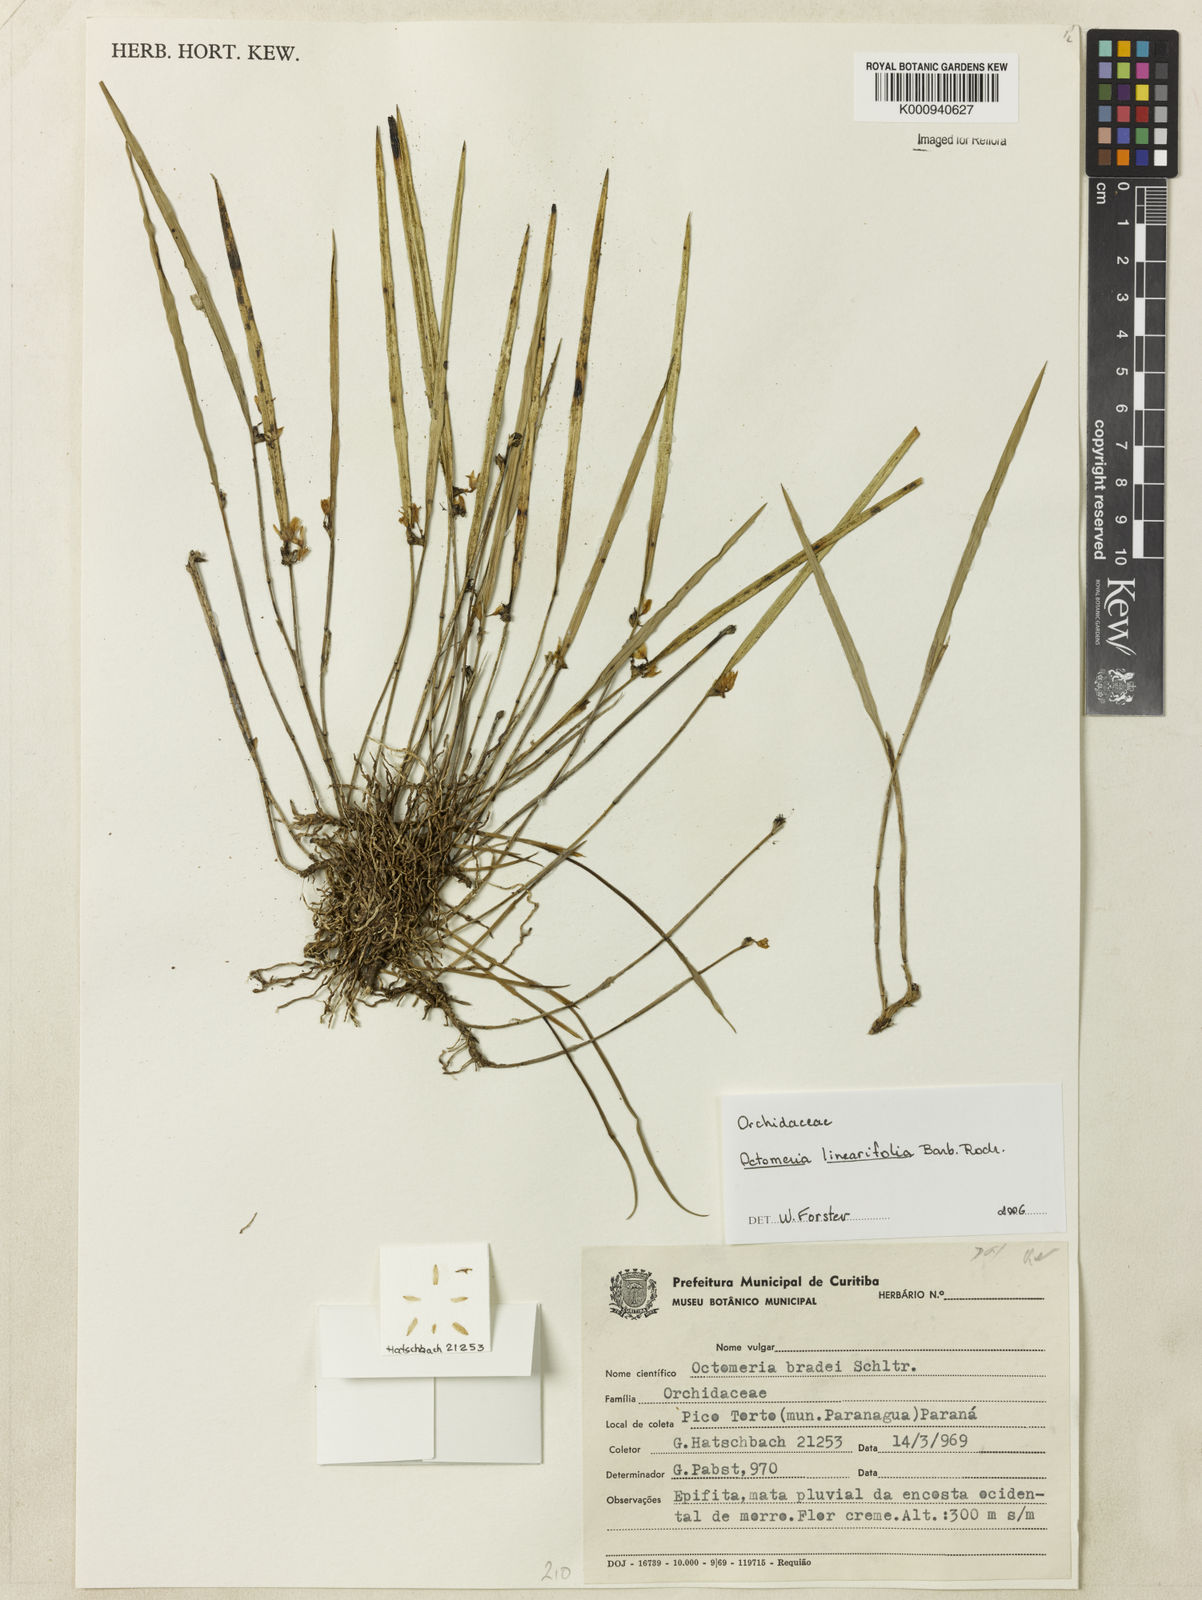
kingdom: Plantae
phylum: Tracheophyta
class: Liliopsida
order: Asparagales
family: Orchidaceae
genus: Octomeria
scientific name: Octomeria linearifolia
